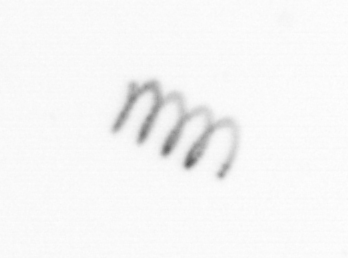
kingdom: Chromista
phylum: Ochrophyta
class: Bacillariophyceae
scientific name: Bacillariophyceae
